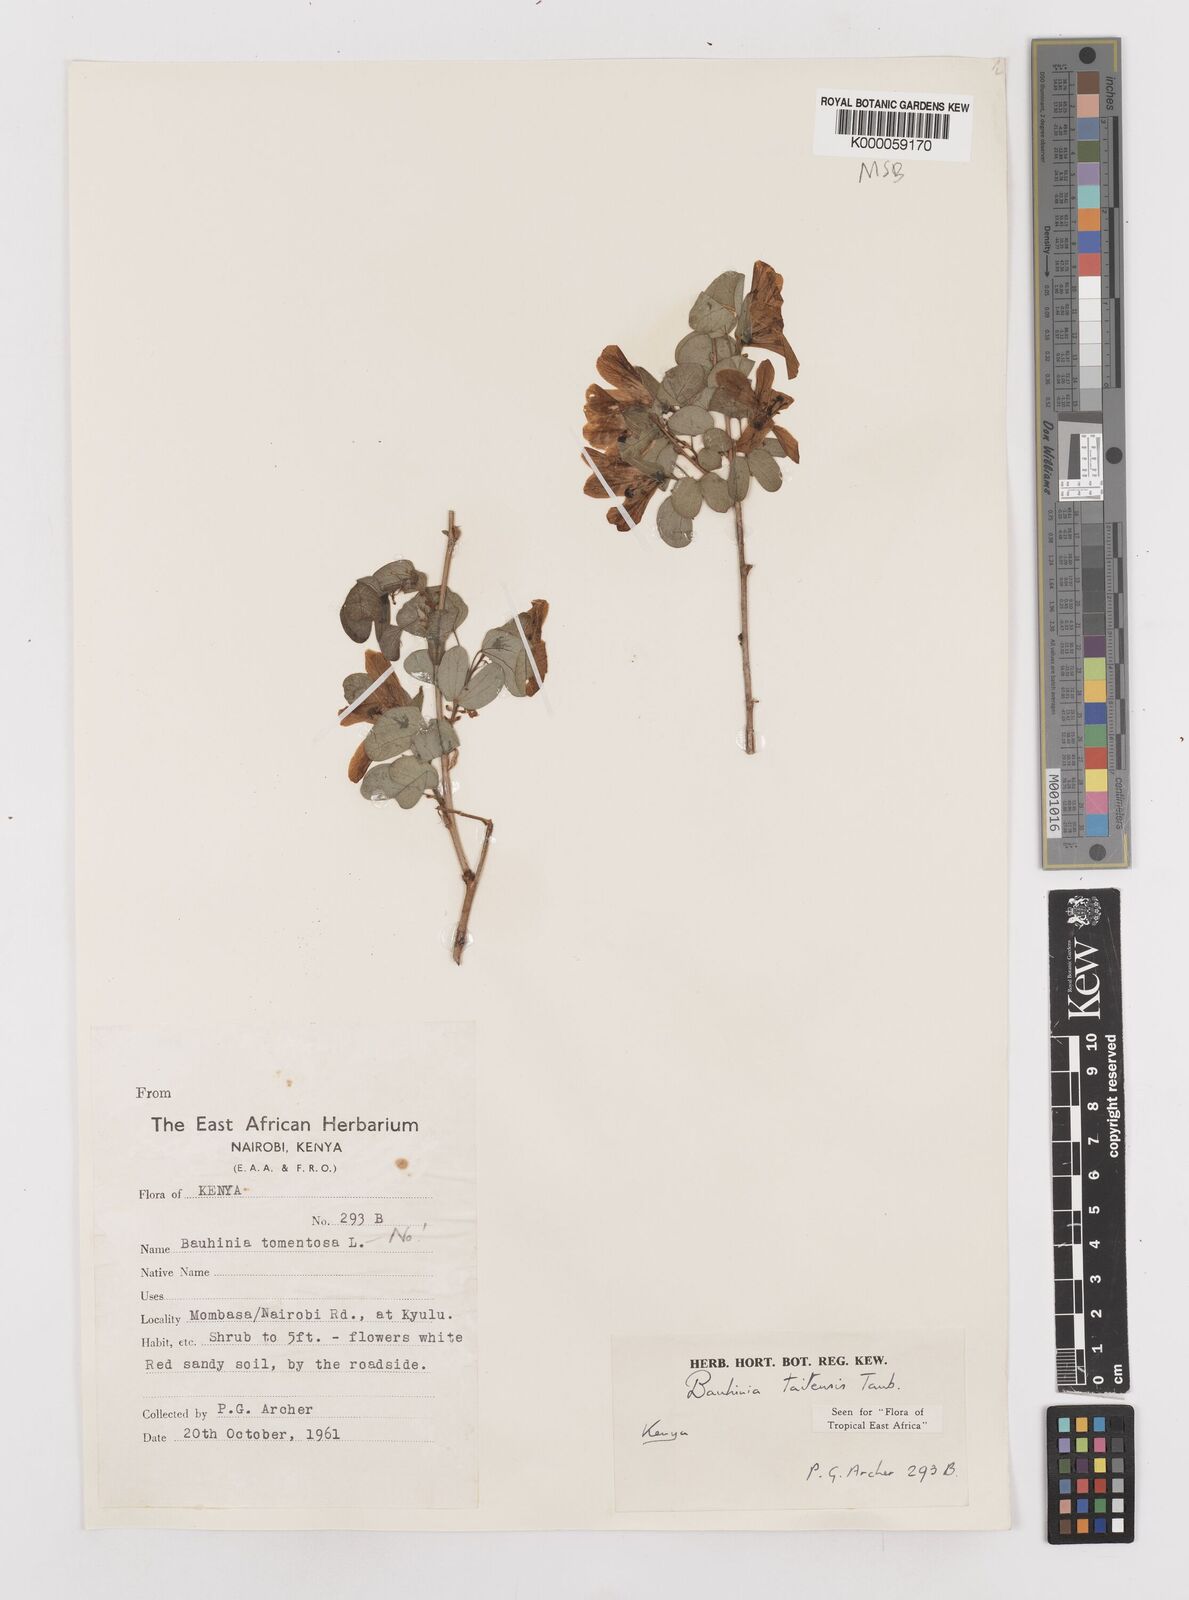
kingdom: Plantae
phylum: Tracheophyta
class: Magnoliopsida
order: Fabales
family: Fabaceae
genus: Bauhinia
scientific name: Bauhinia taitensis
